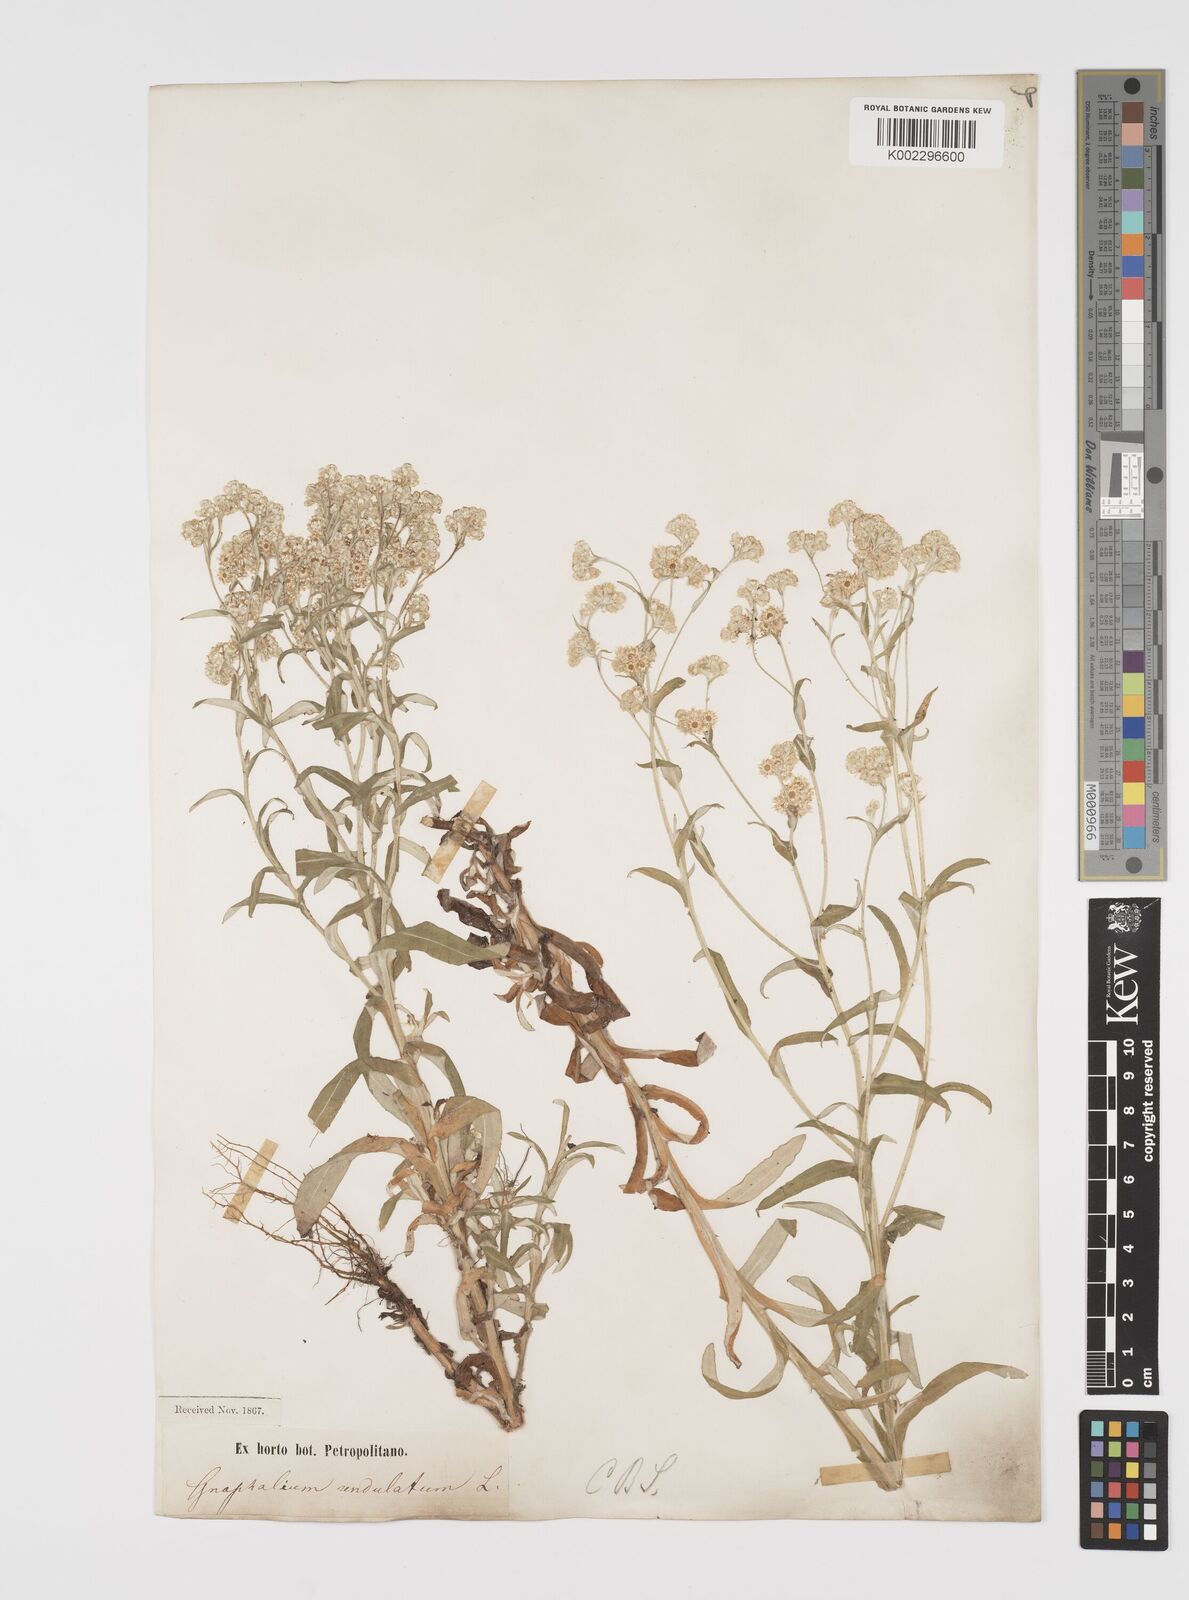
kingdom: Plantae
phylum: Tracheophyta
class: Magnoliopsida
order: Asterales
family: Asteraceae
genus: Pseudognaphalium
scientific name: Pseudognaphalium undulatum
